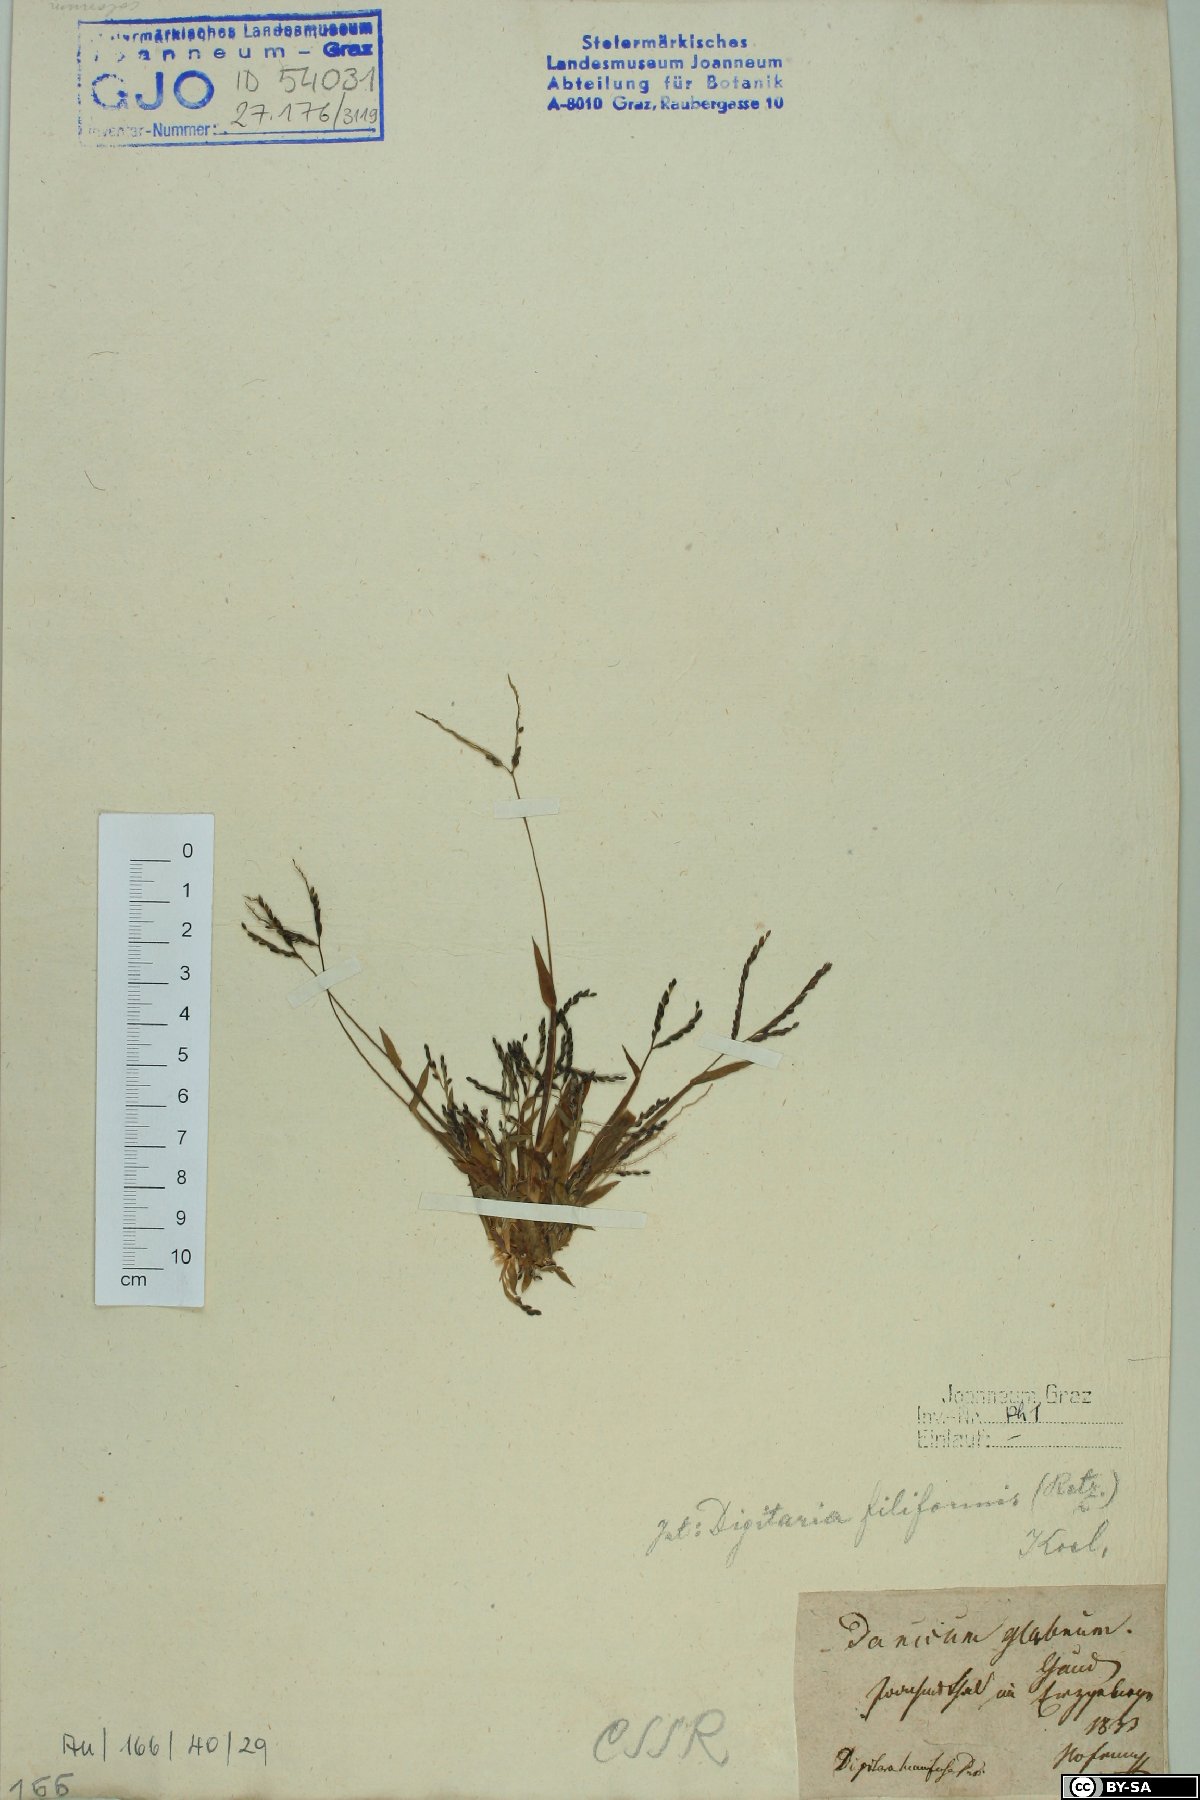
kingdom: Plantae
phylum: Tracheophyta
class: Liliopsida
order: Poales
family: Poaceae
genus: Digitaria
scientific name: Digitaria ischaemum
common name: Smooth crabgrass
